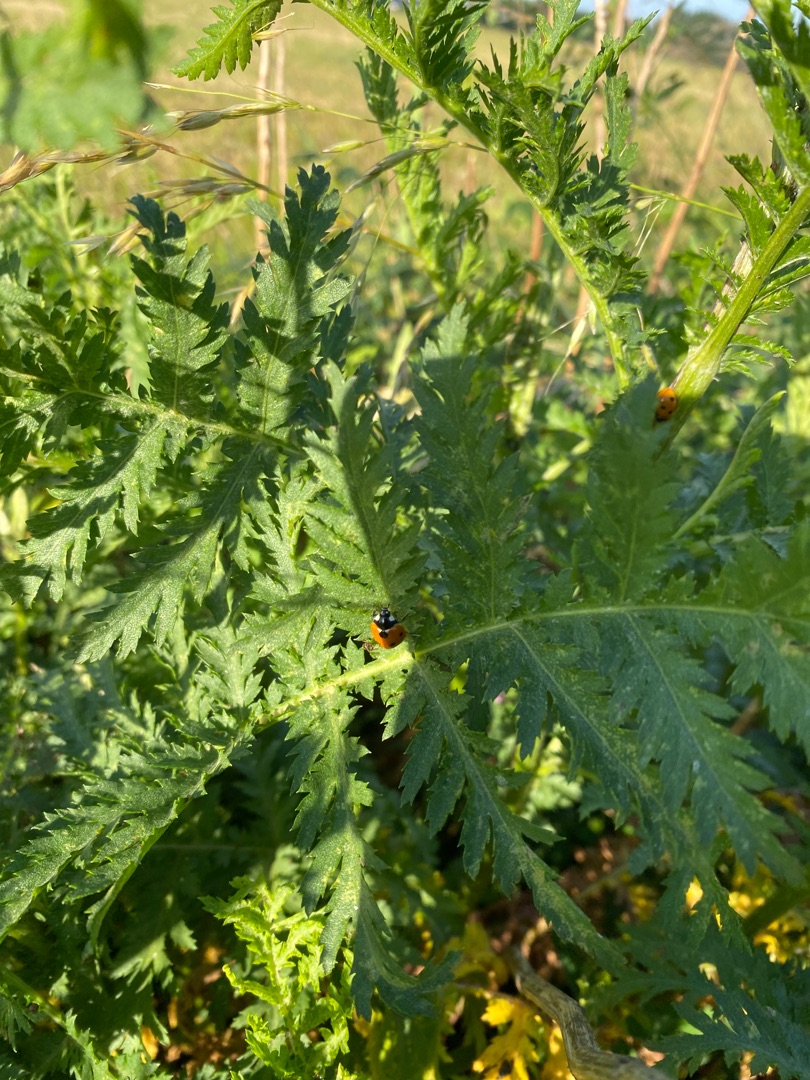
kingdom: Plantae
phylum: Tracheophyta
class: Magnoliopsida
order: Asterales
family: Asteraceae
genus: Tanacetum
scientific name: Tanacetum vulgare
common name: Rejnfan
